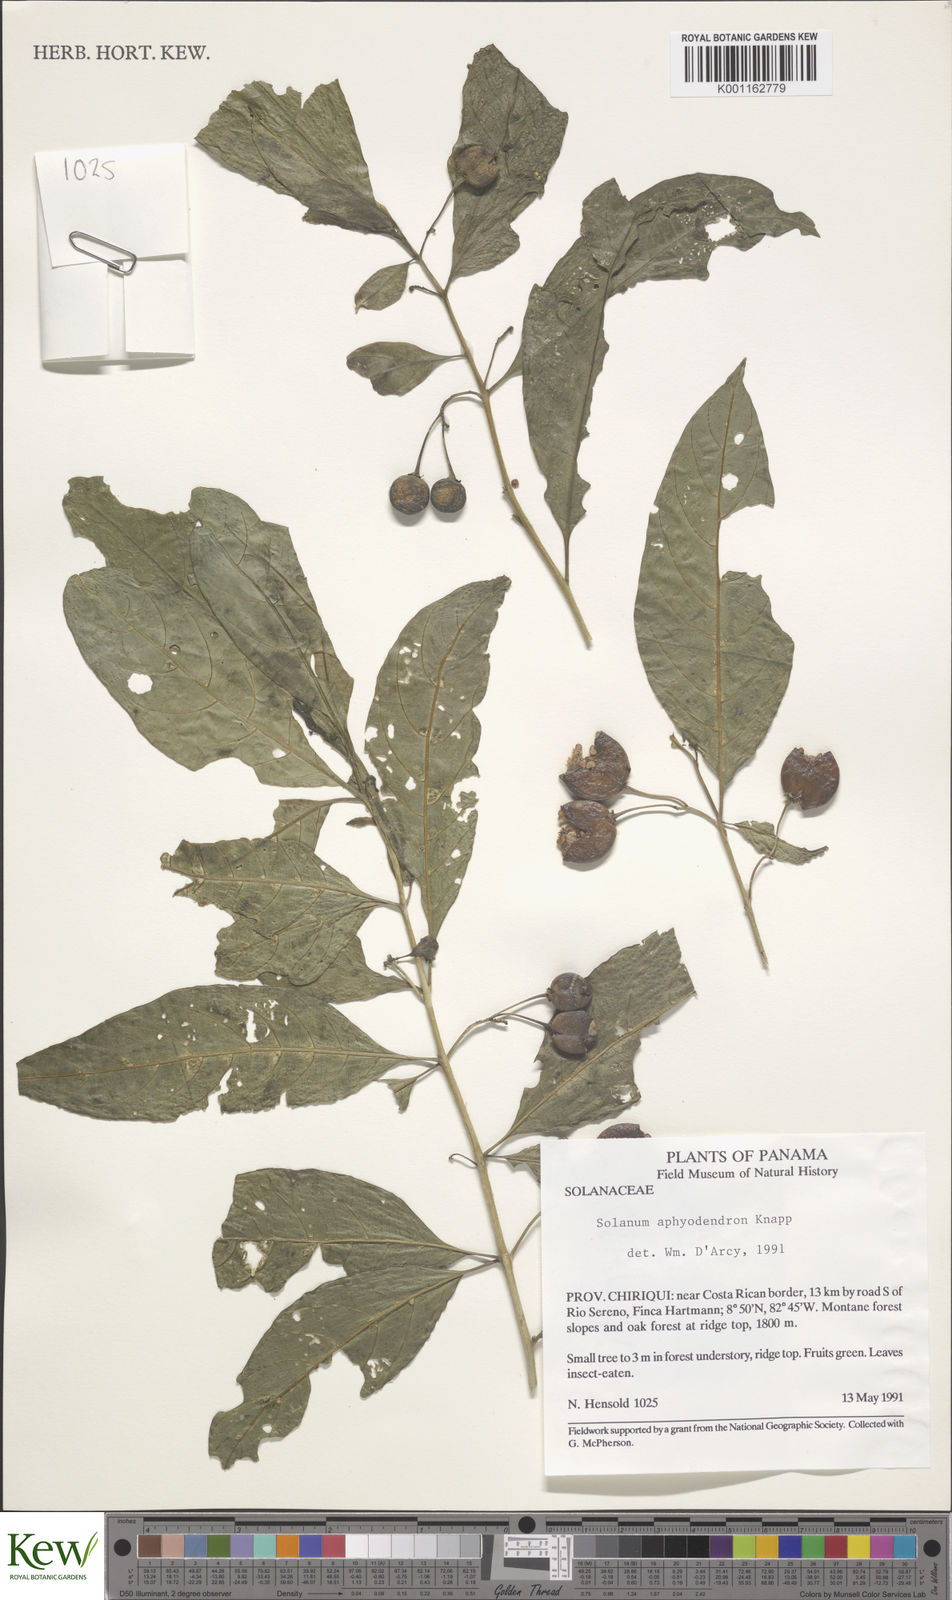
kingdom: Plantae
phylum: Tracheophyta
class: Magnoliopsida
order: Solanales
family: Solanaceae
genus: Solanum
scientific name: Solanum aphyodendron
